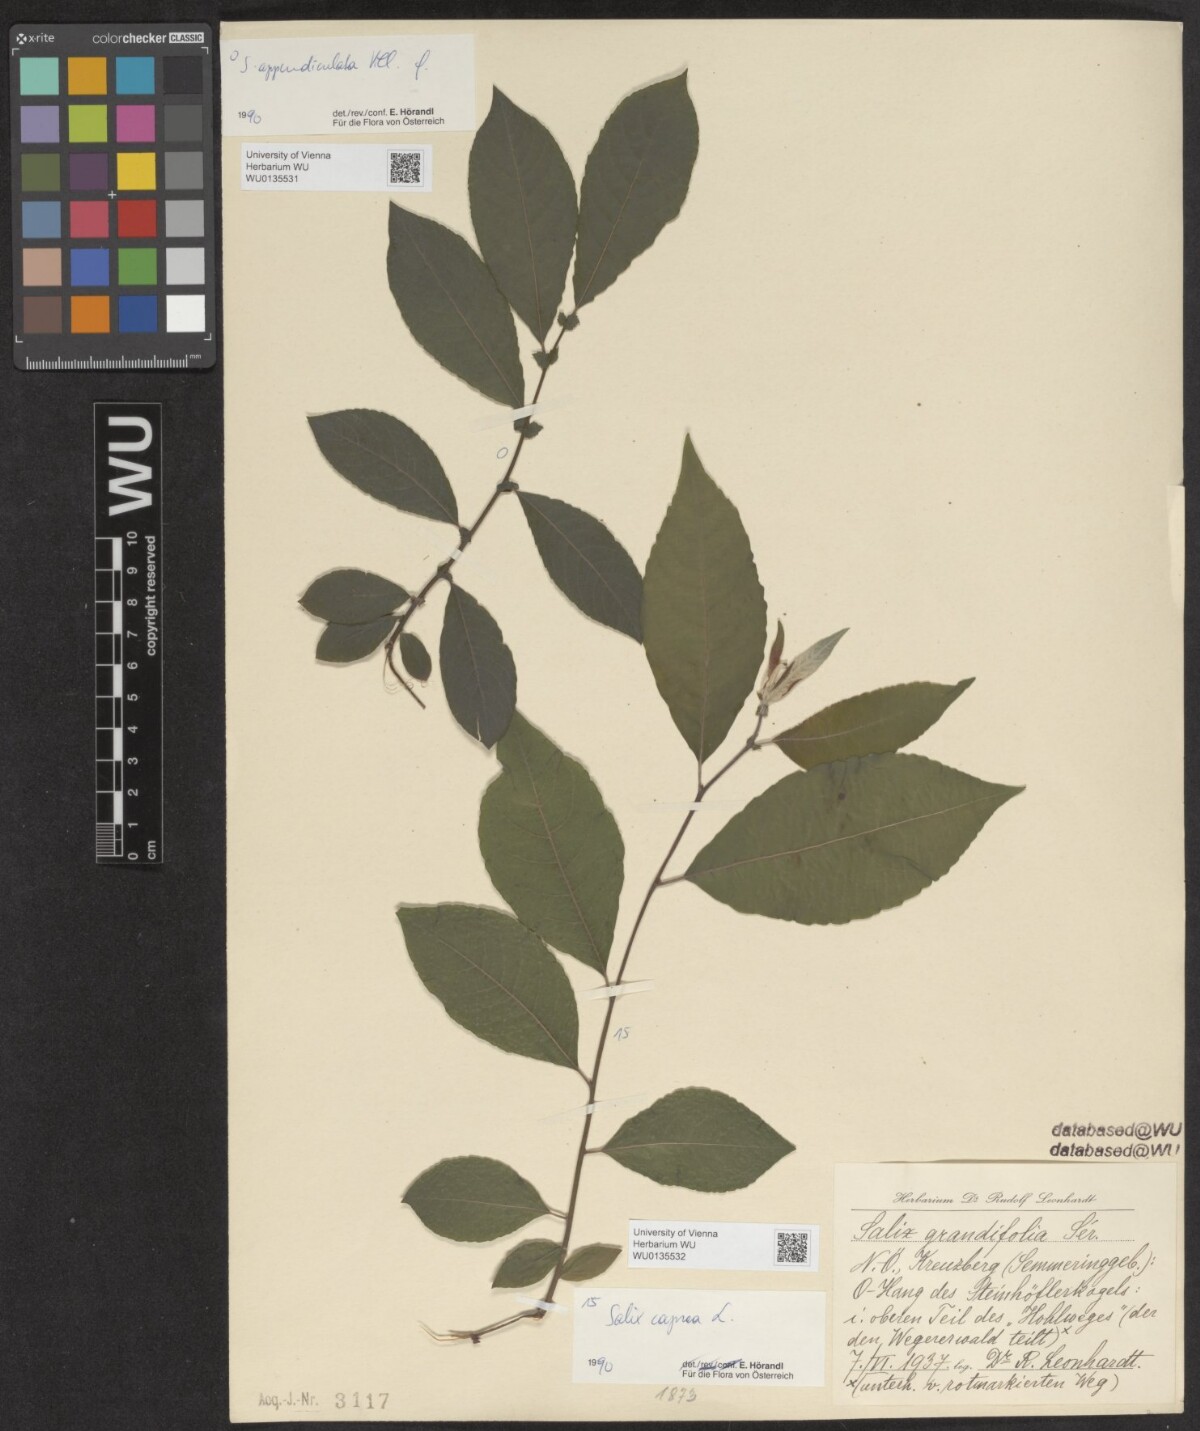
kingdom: Plantae
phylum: Tracheophyta
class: Magnoliopsida
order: Malpighiales
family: Salicaceae
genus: Salix
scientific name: Salix appendiculata
